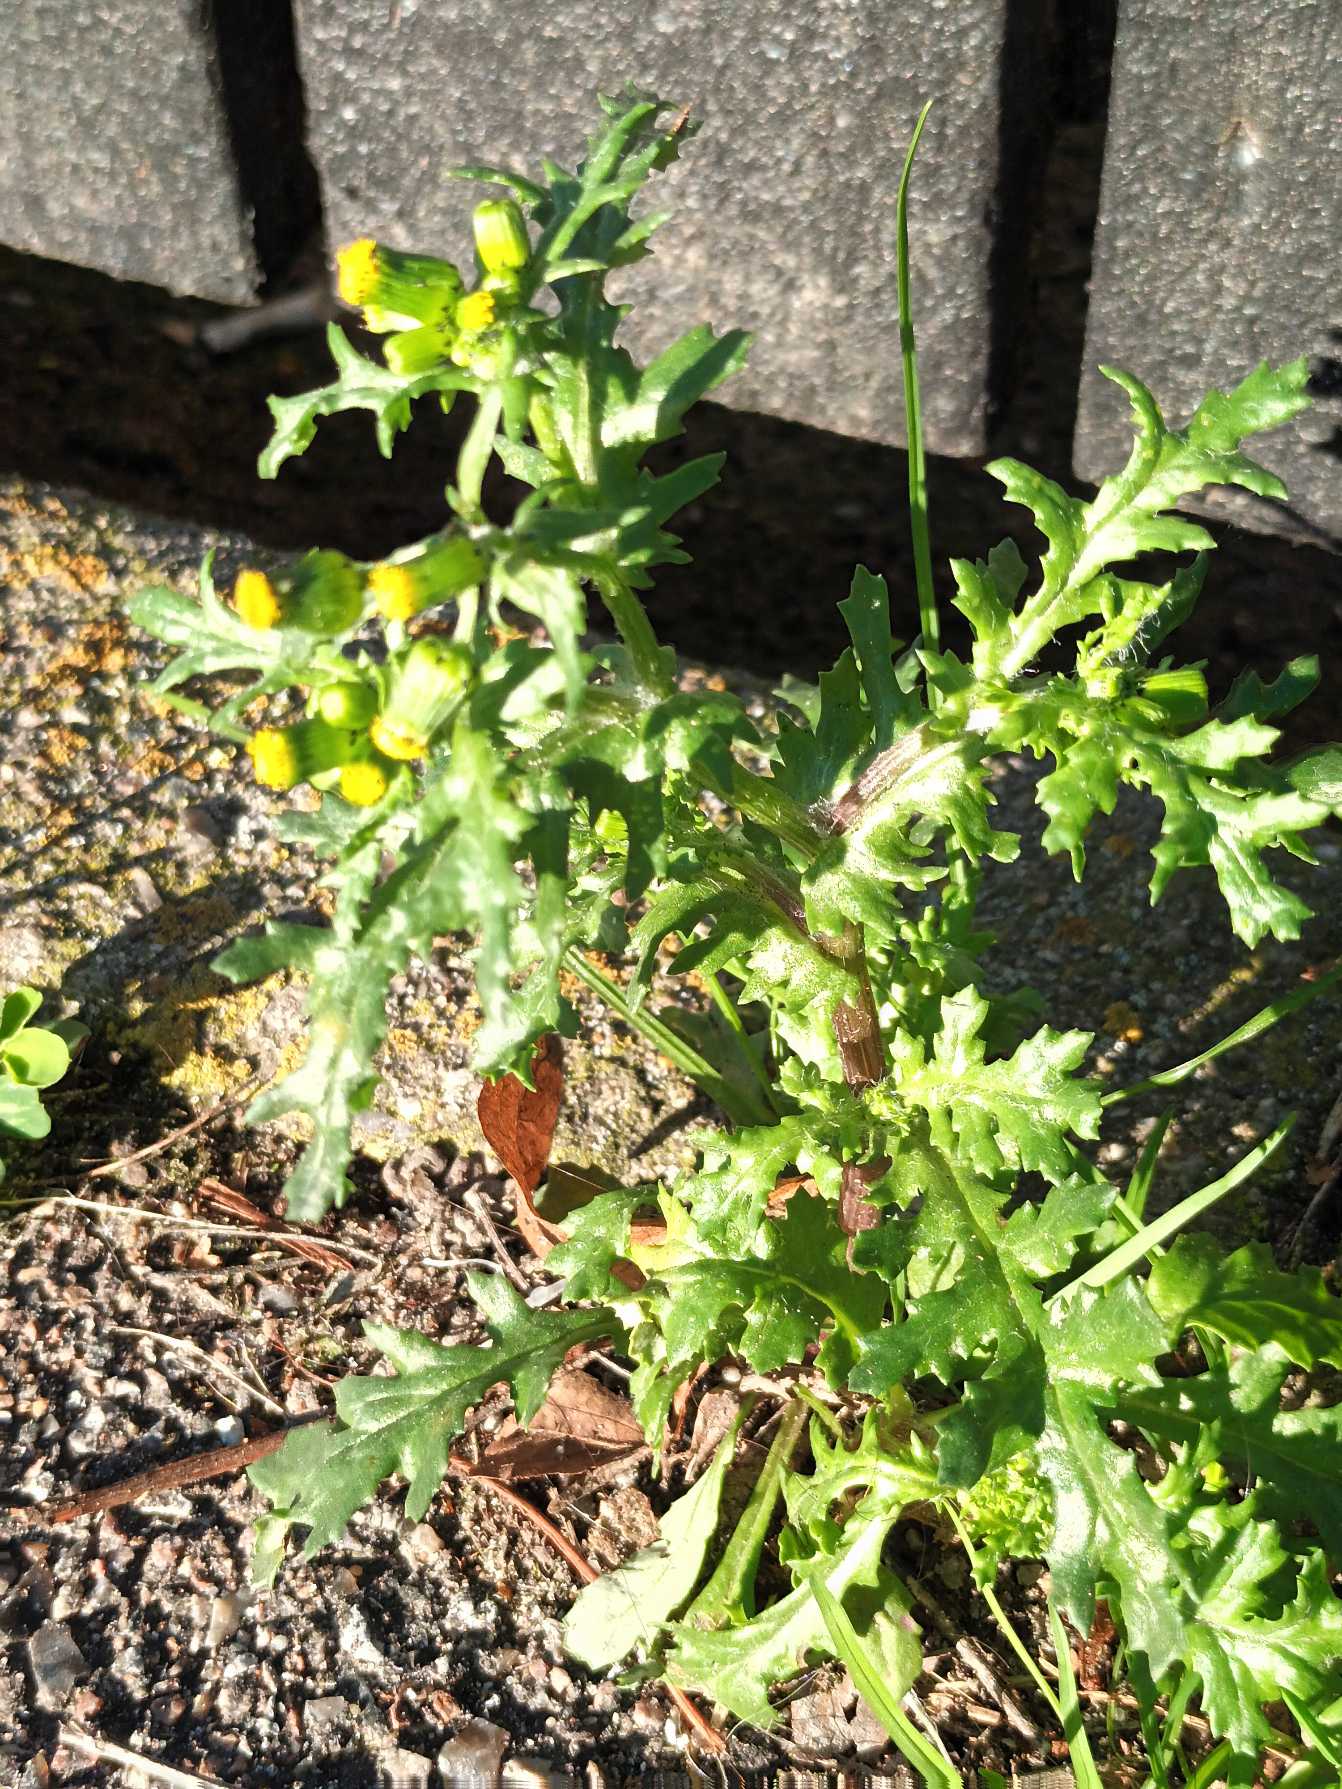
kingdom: Plantae
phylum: Tracheophyta
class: Magnoliopsida
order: Asterales
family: Asteraceae
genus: Senecio
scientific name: Senecio vulgaris
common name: Almindelig brandbæger
